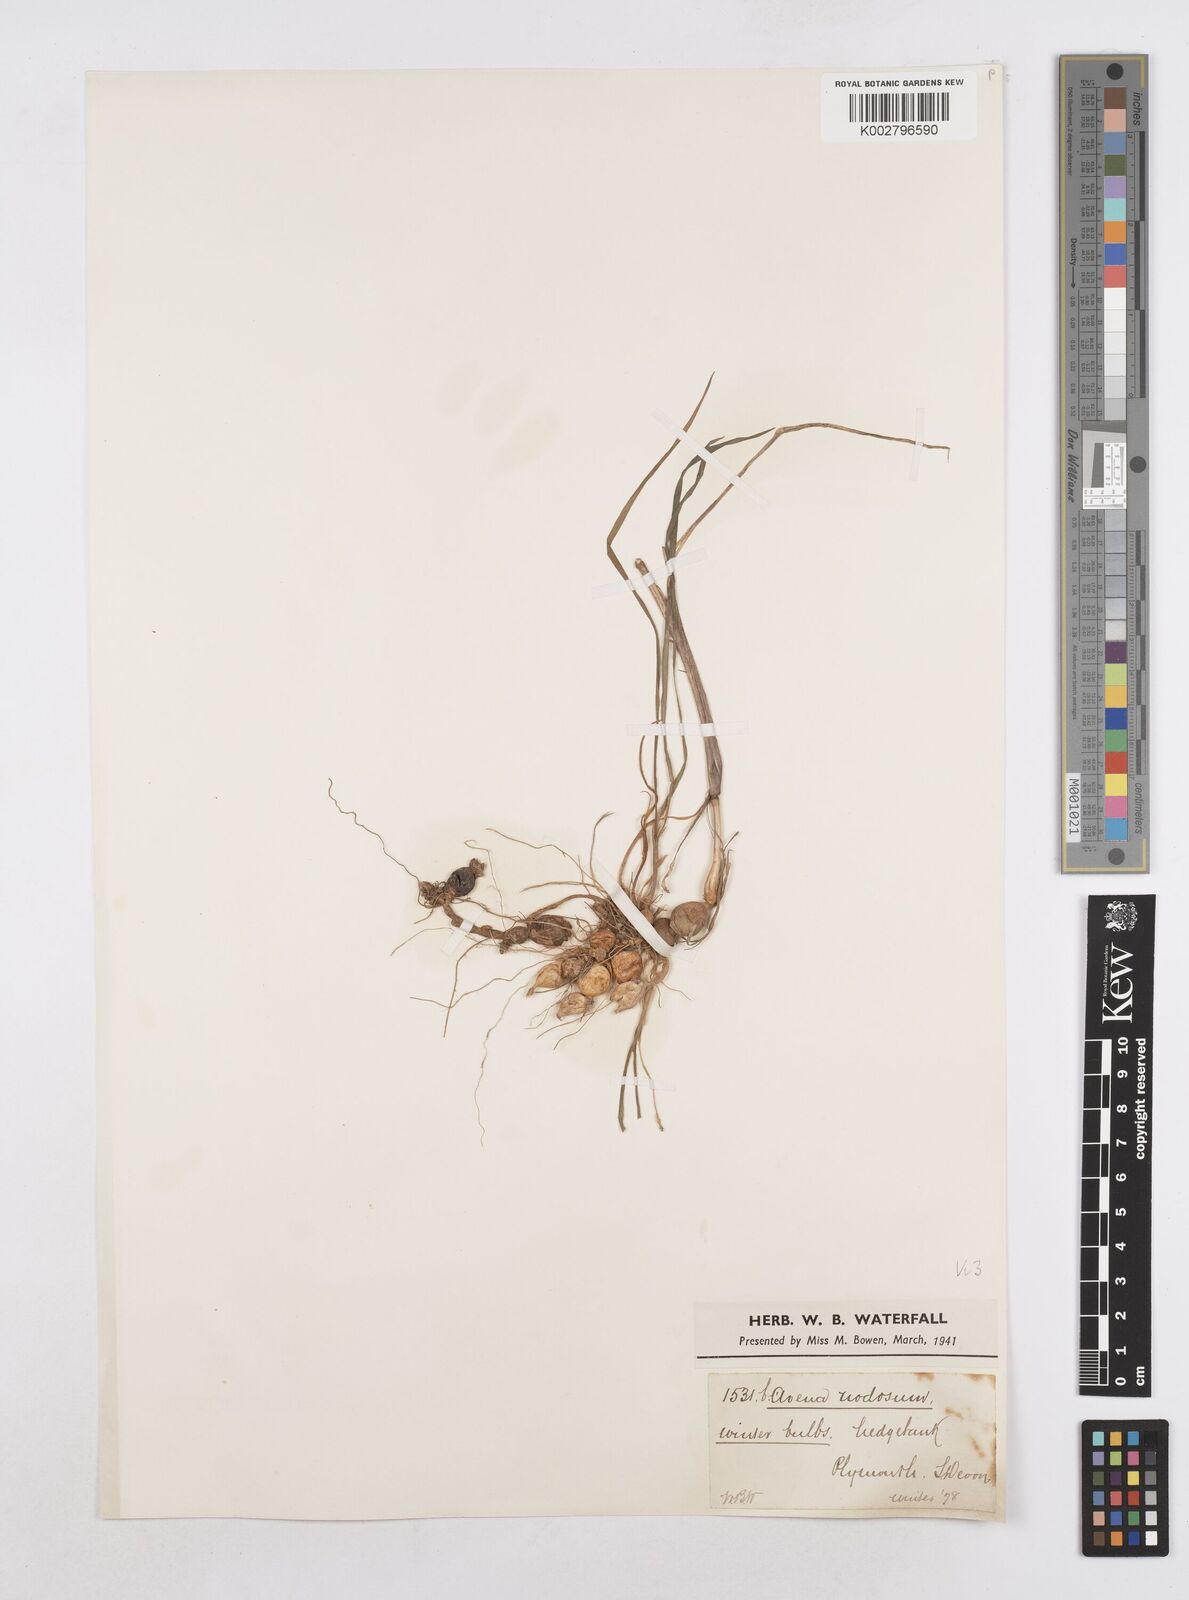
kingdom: Plantae
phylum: Tracheophyta
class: Liliopsida
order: Poales
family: Poaceae
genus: Arrhenatherum
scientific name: Arrhenatherum elatius
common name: Tall oatgrass
